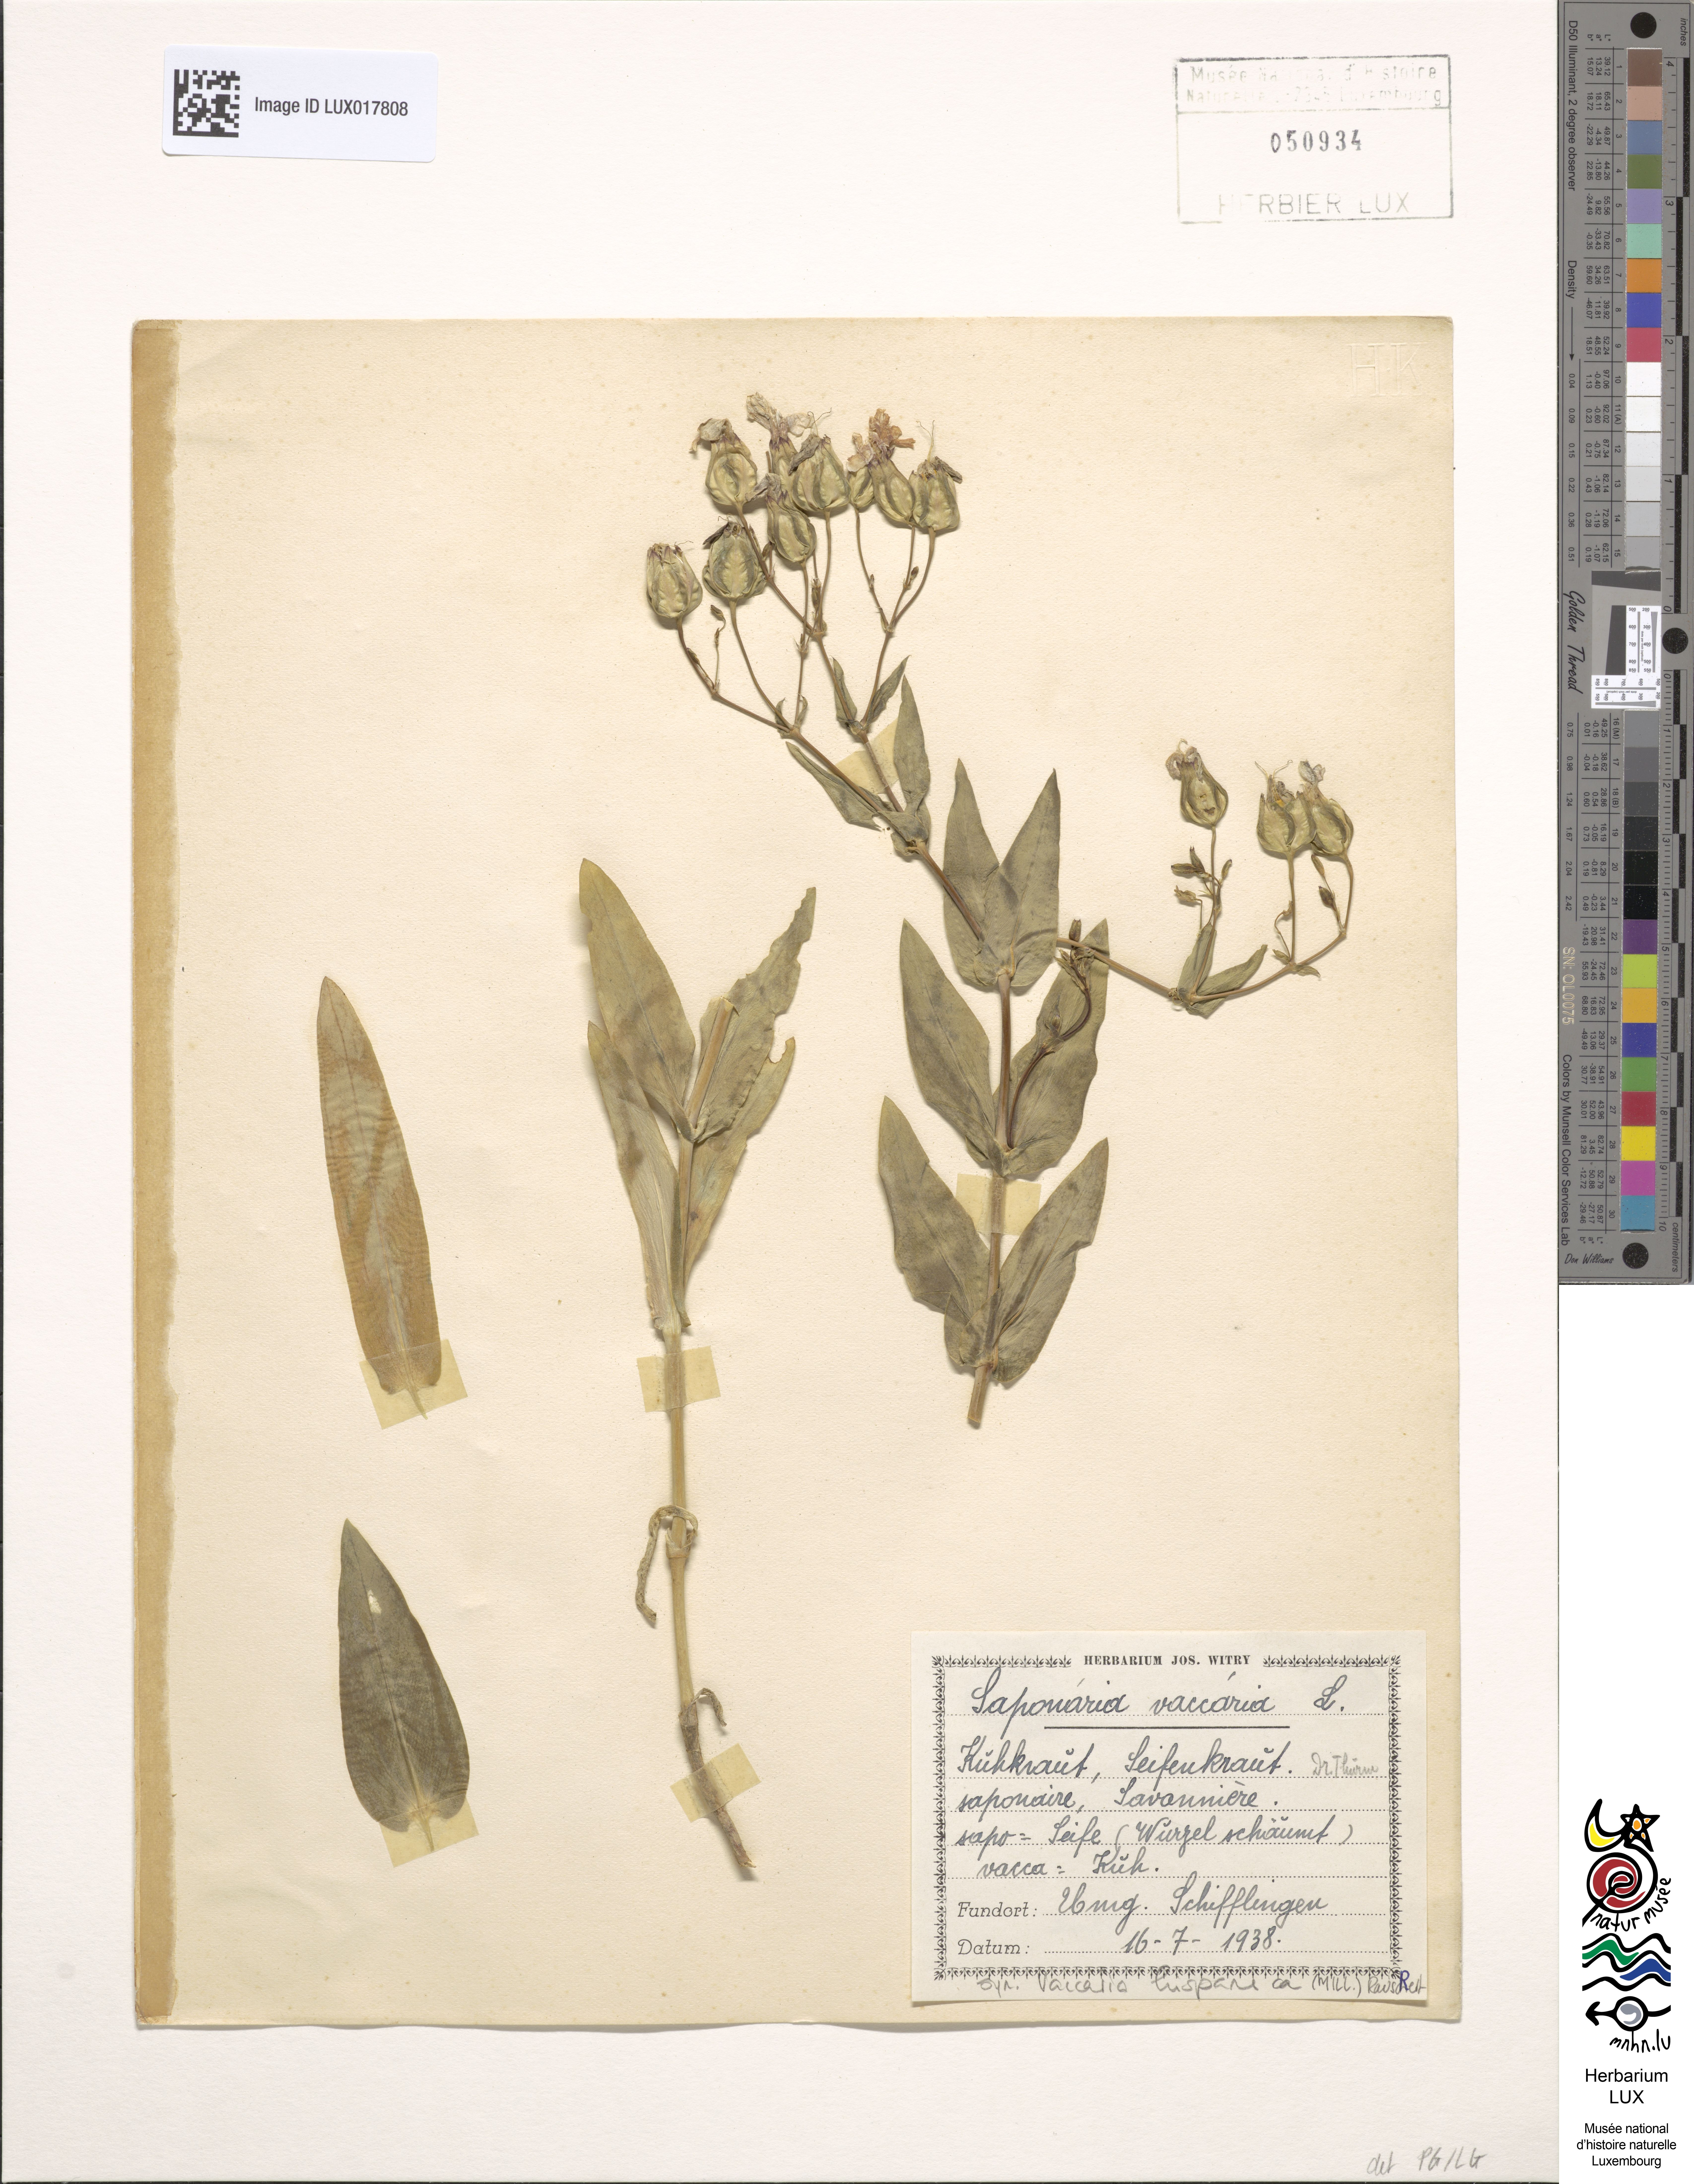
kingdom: Plantae
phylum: Tracheophyta
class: Magnoliopsida
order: Caryophyllales
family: Caryophyllaceae
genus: Gypsophila
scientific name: Gypsophila vaccaria
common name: Cow soapwort
